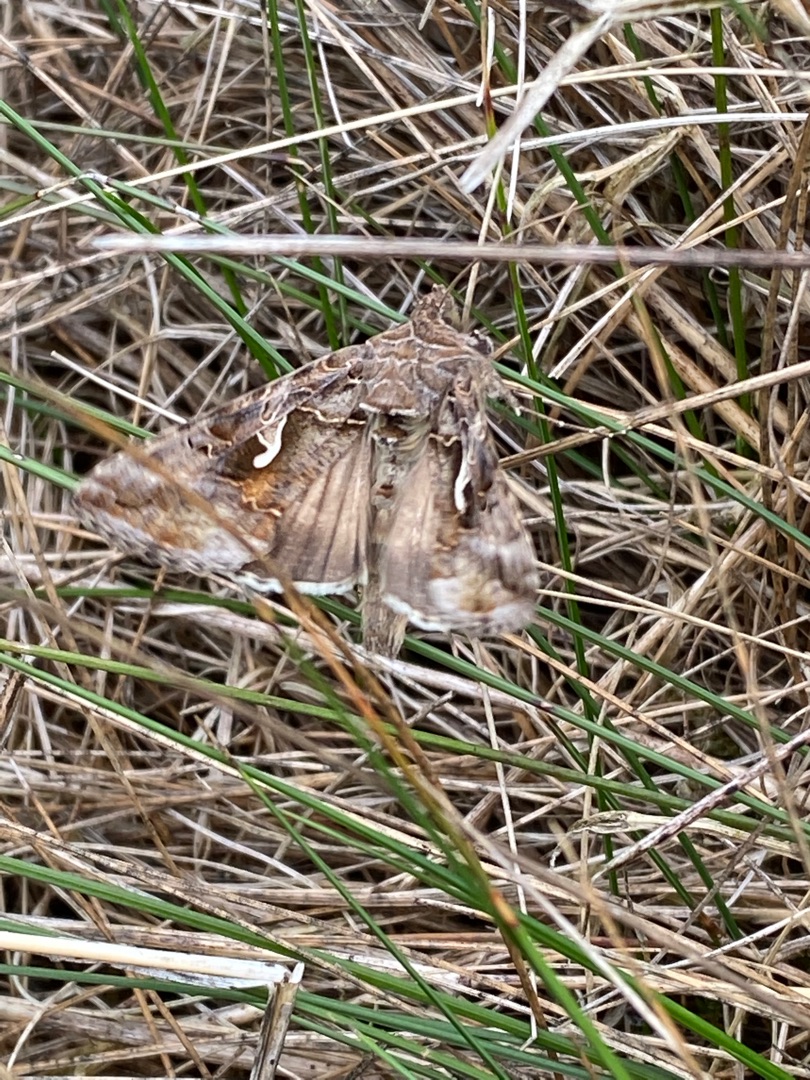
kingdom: Animalia
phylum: Arthropoda
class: Insecta
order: Lepidoptera
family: Noctuidae
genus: Autographa
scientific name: Autographa gamma
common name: Gammaugle
